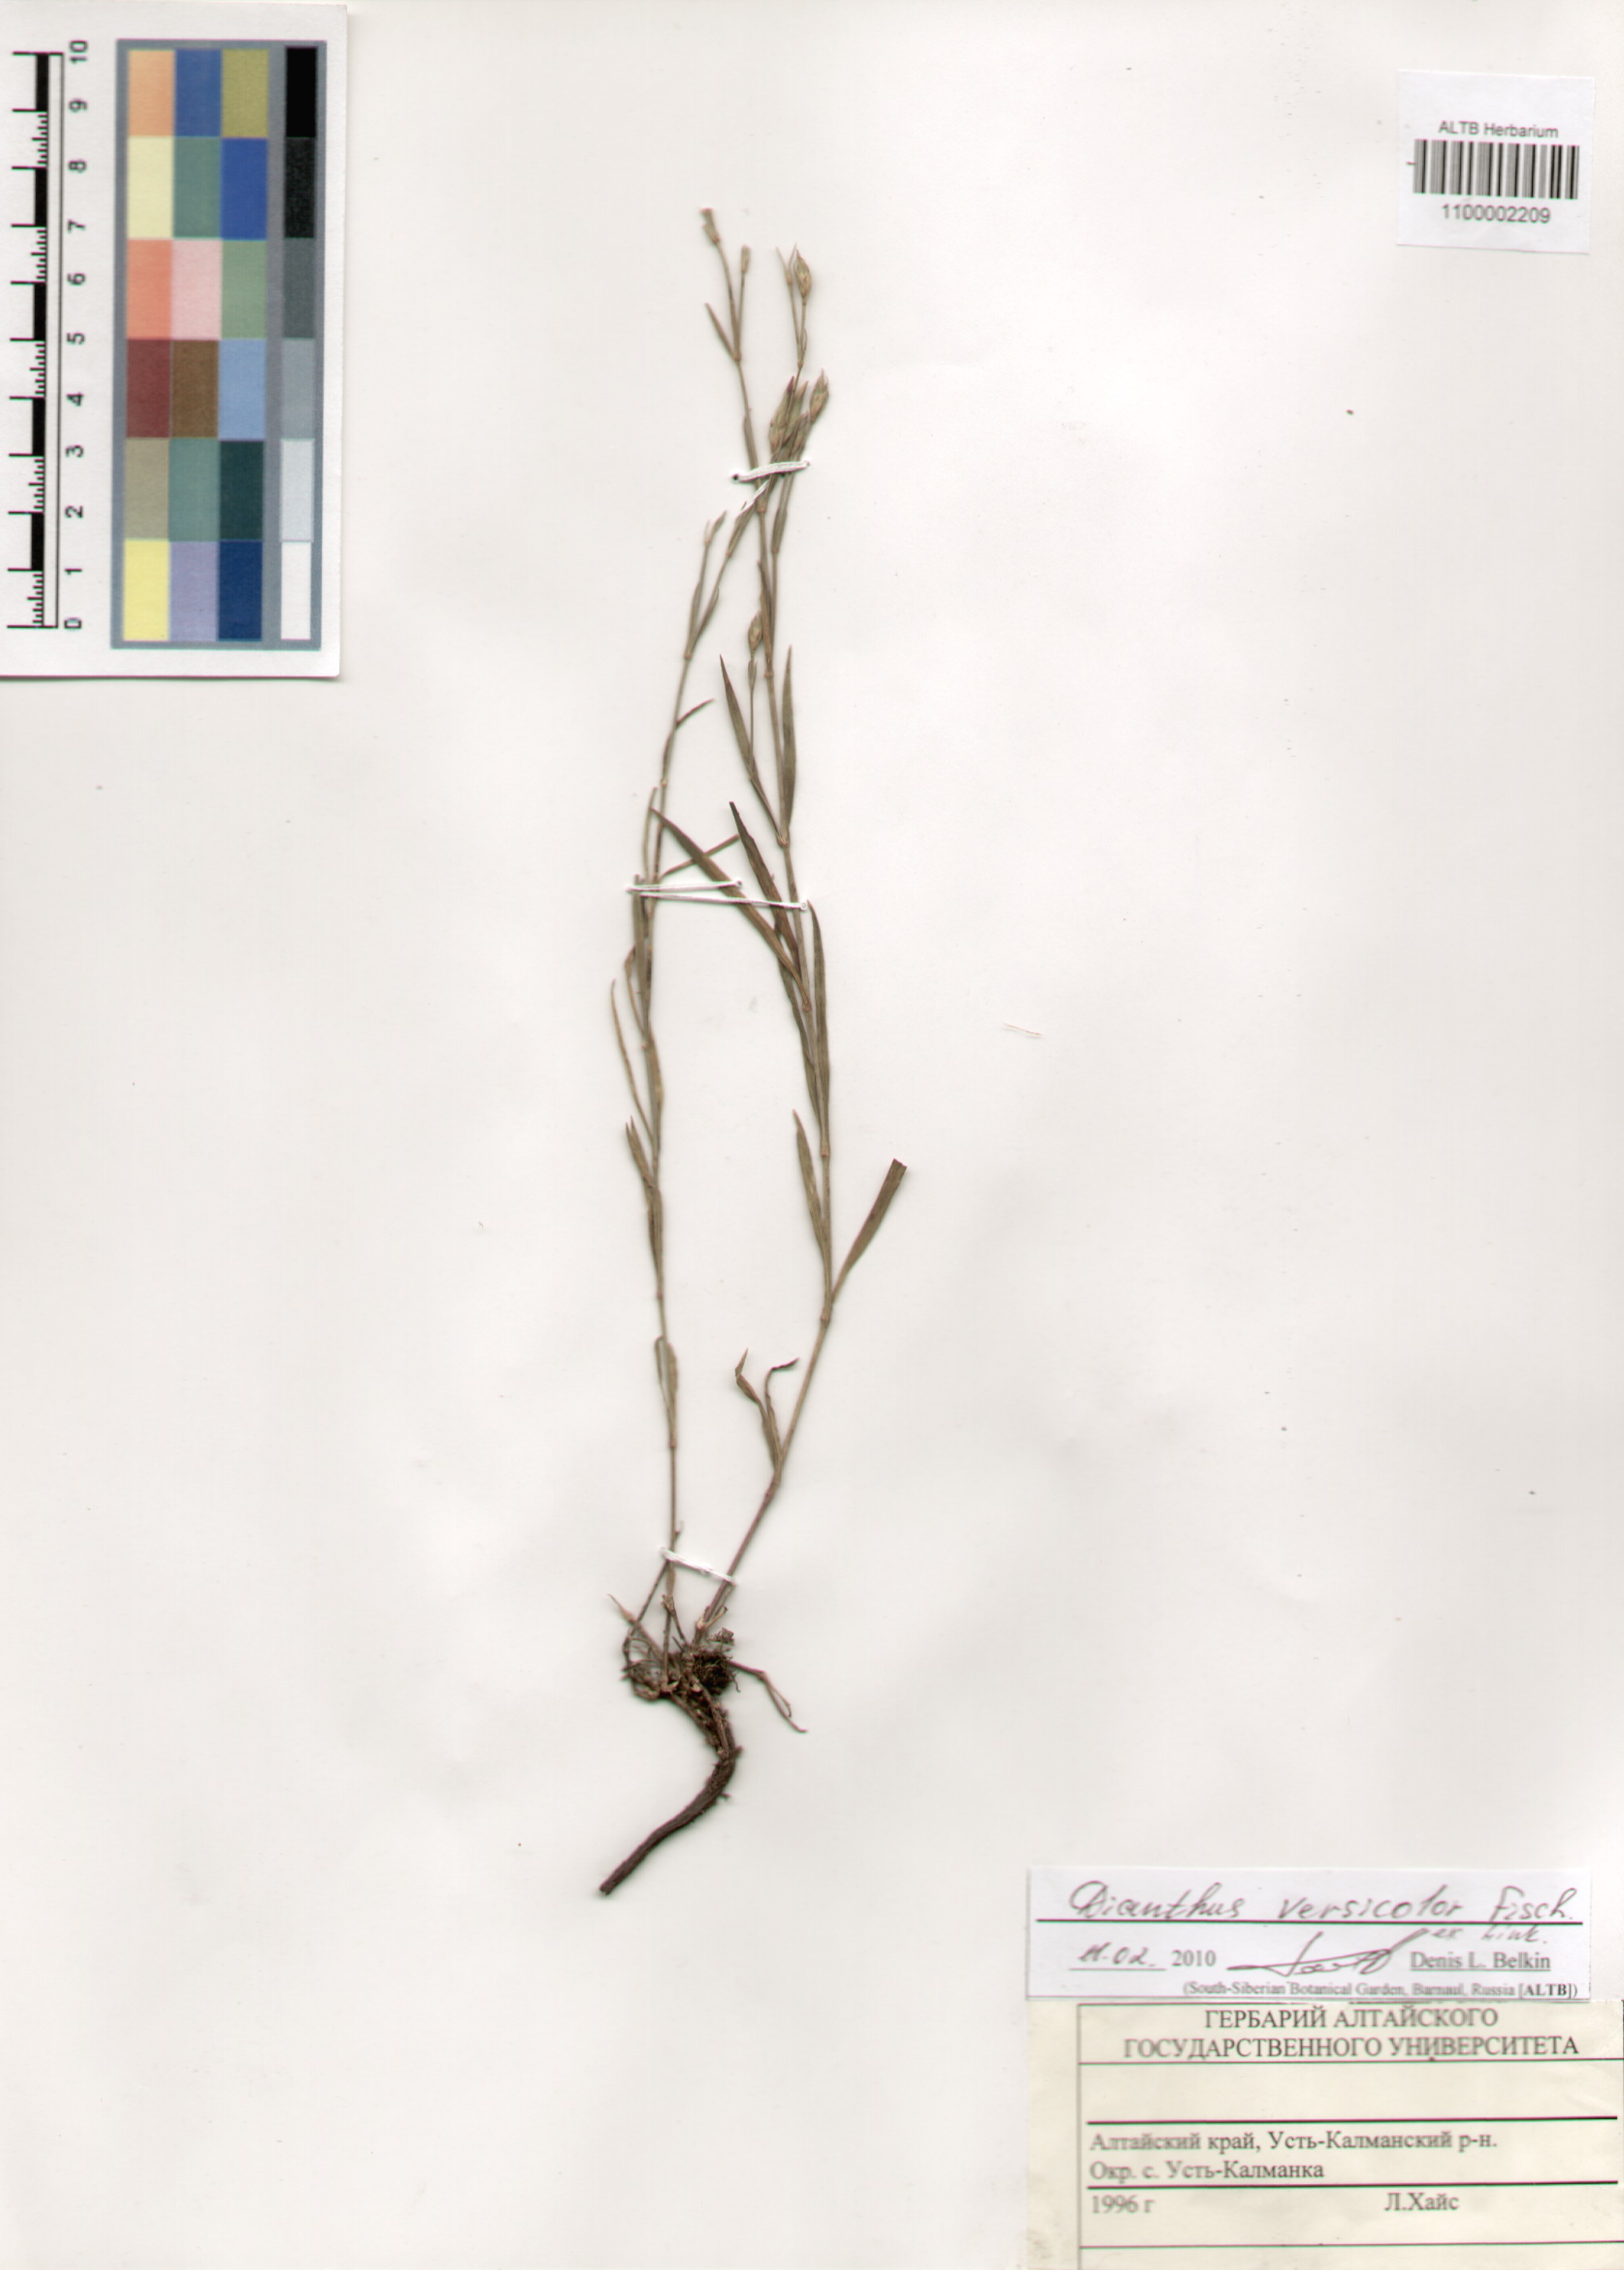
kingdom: Plantae
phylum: Tracheophyta
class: Magnoliopsida
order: Caryophyllales
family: Caryophyllaceae
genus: Dianthus
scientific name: Dianthus chinensis
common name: Rainbow pink
